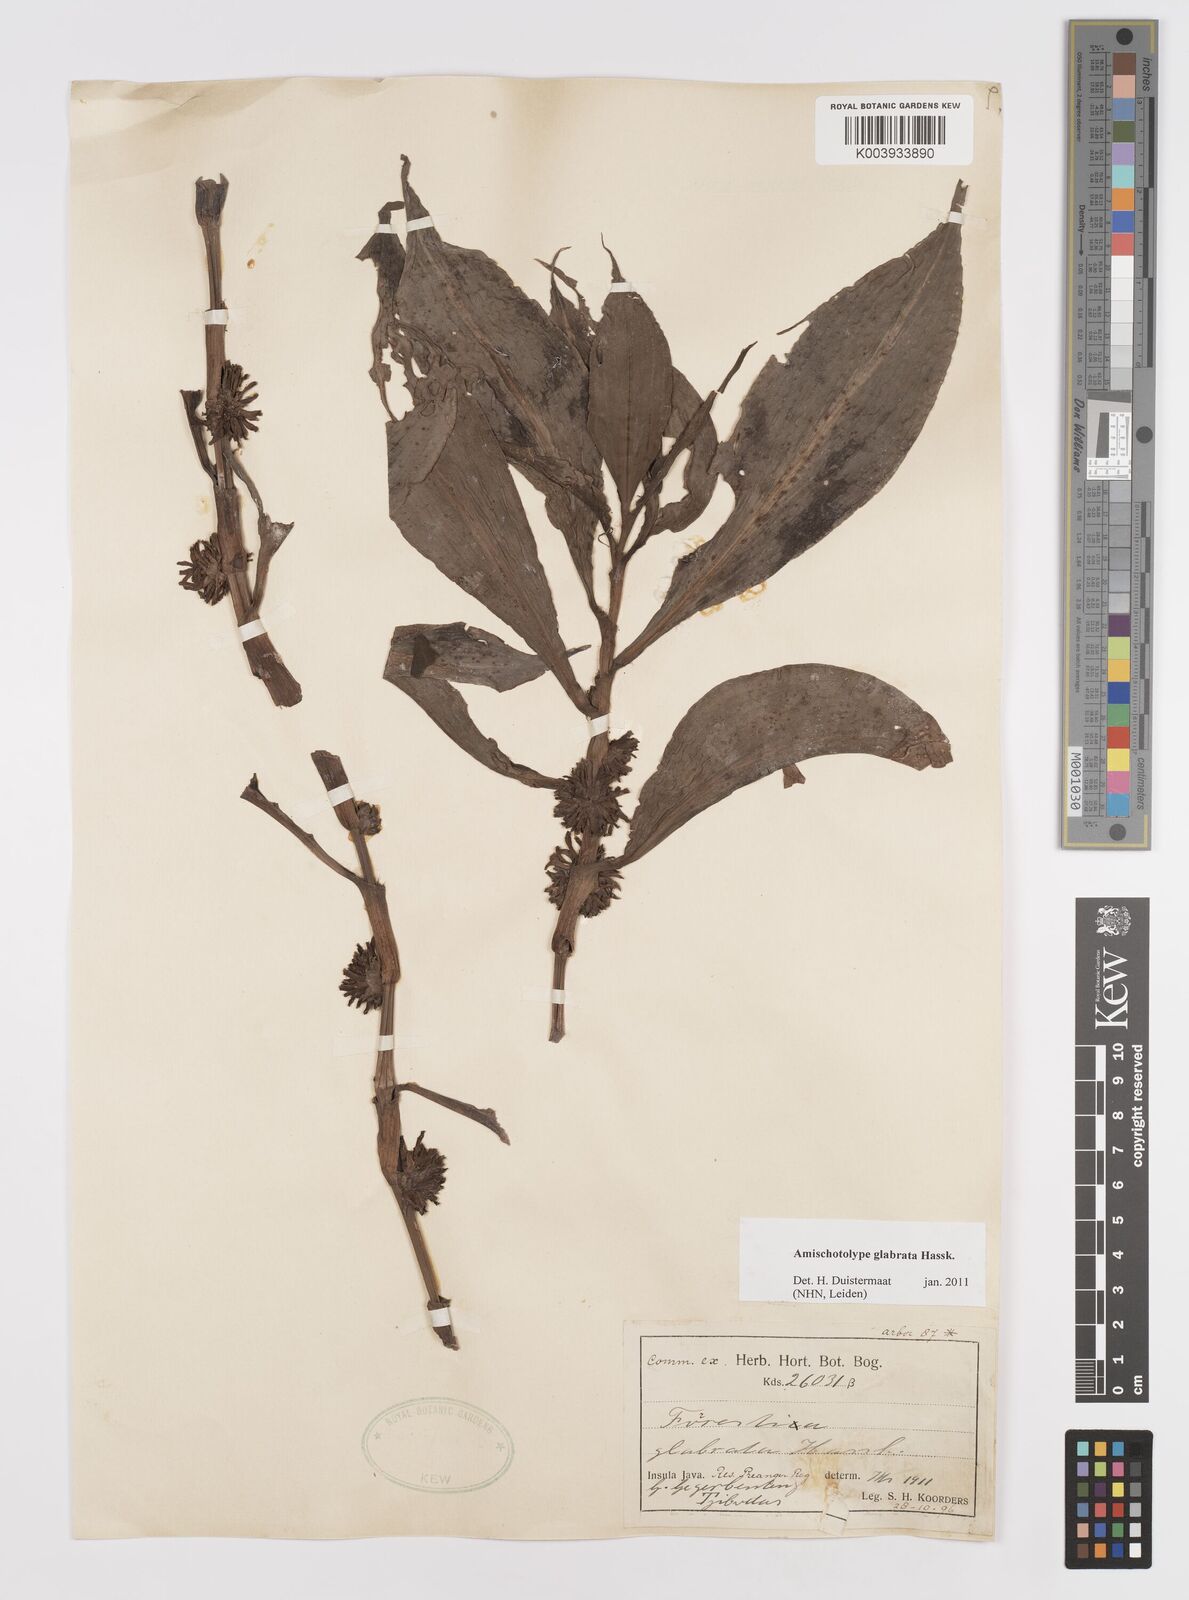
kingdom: Plantae
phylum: Tracheophyta
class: Liliopsida
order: Commelinales
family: Commelinaceae
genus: Amischotolype
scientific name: Amischotolype glabrata
